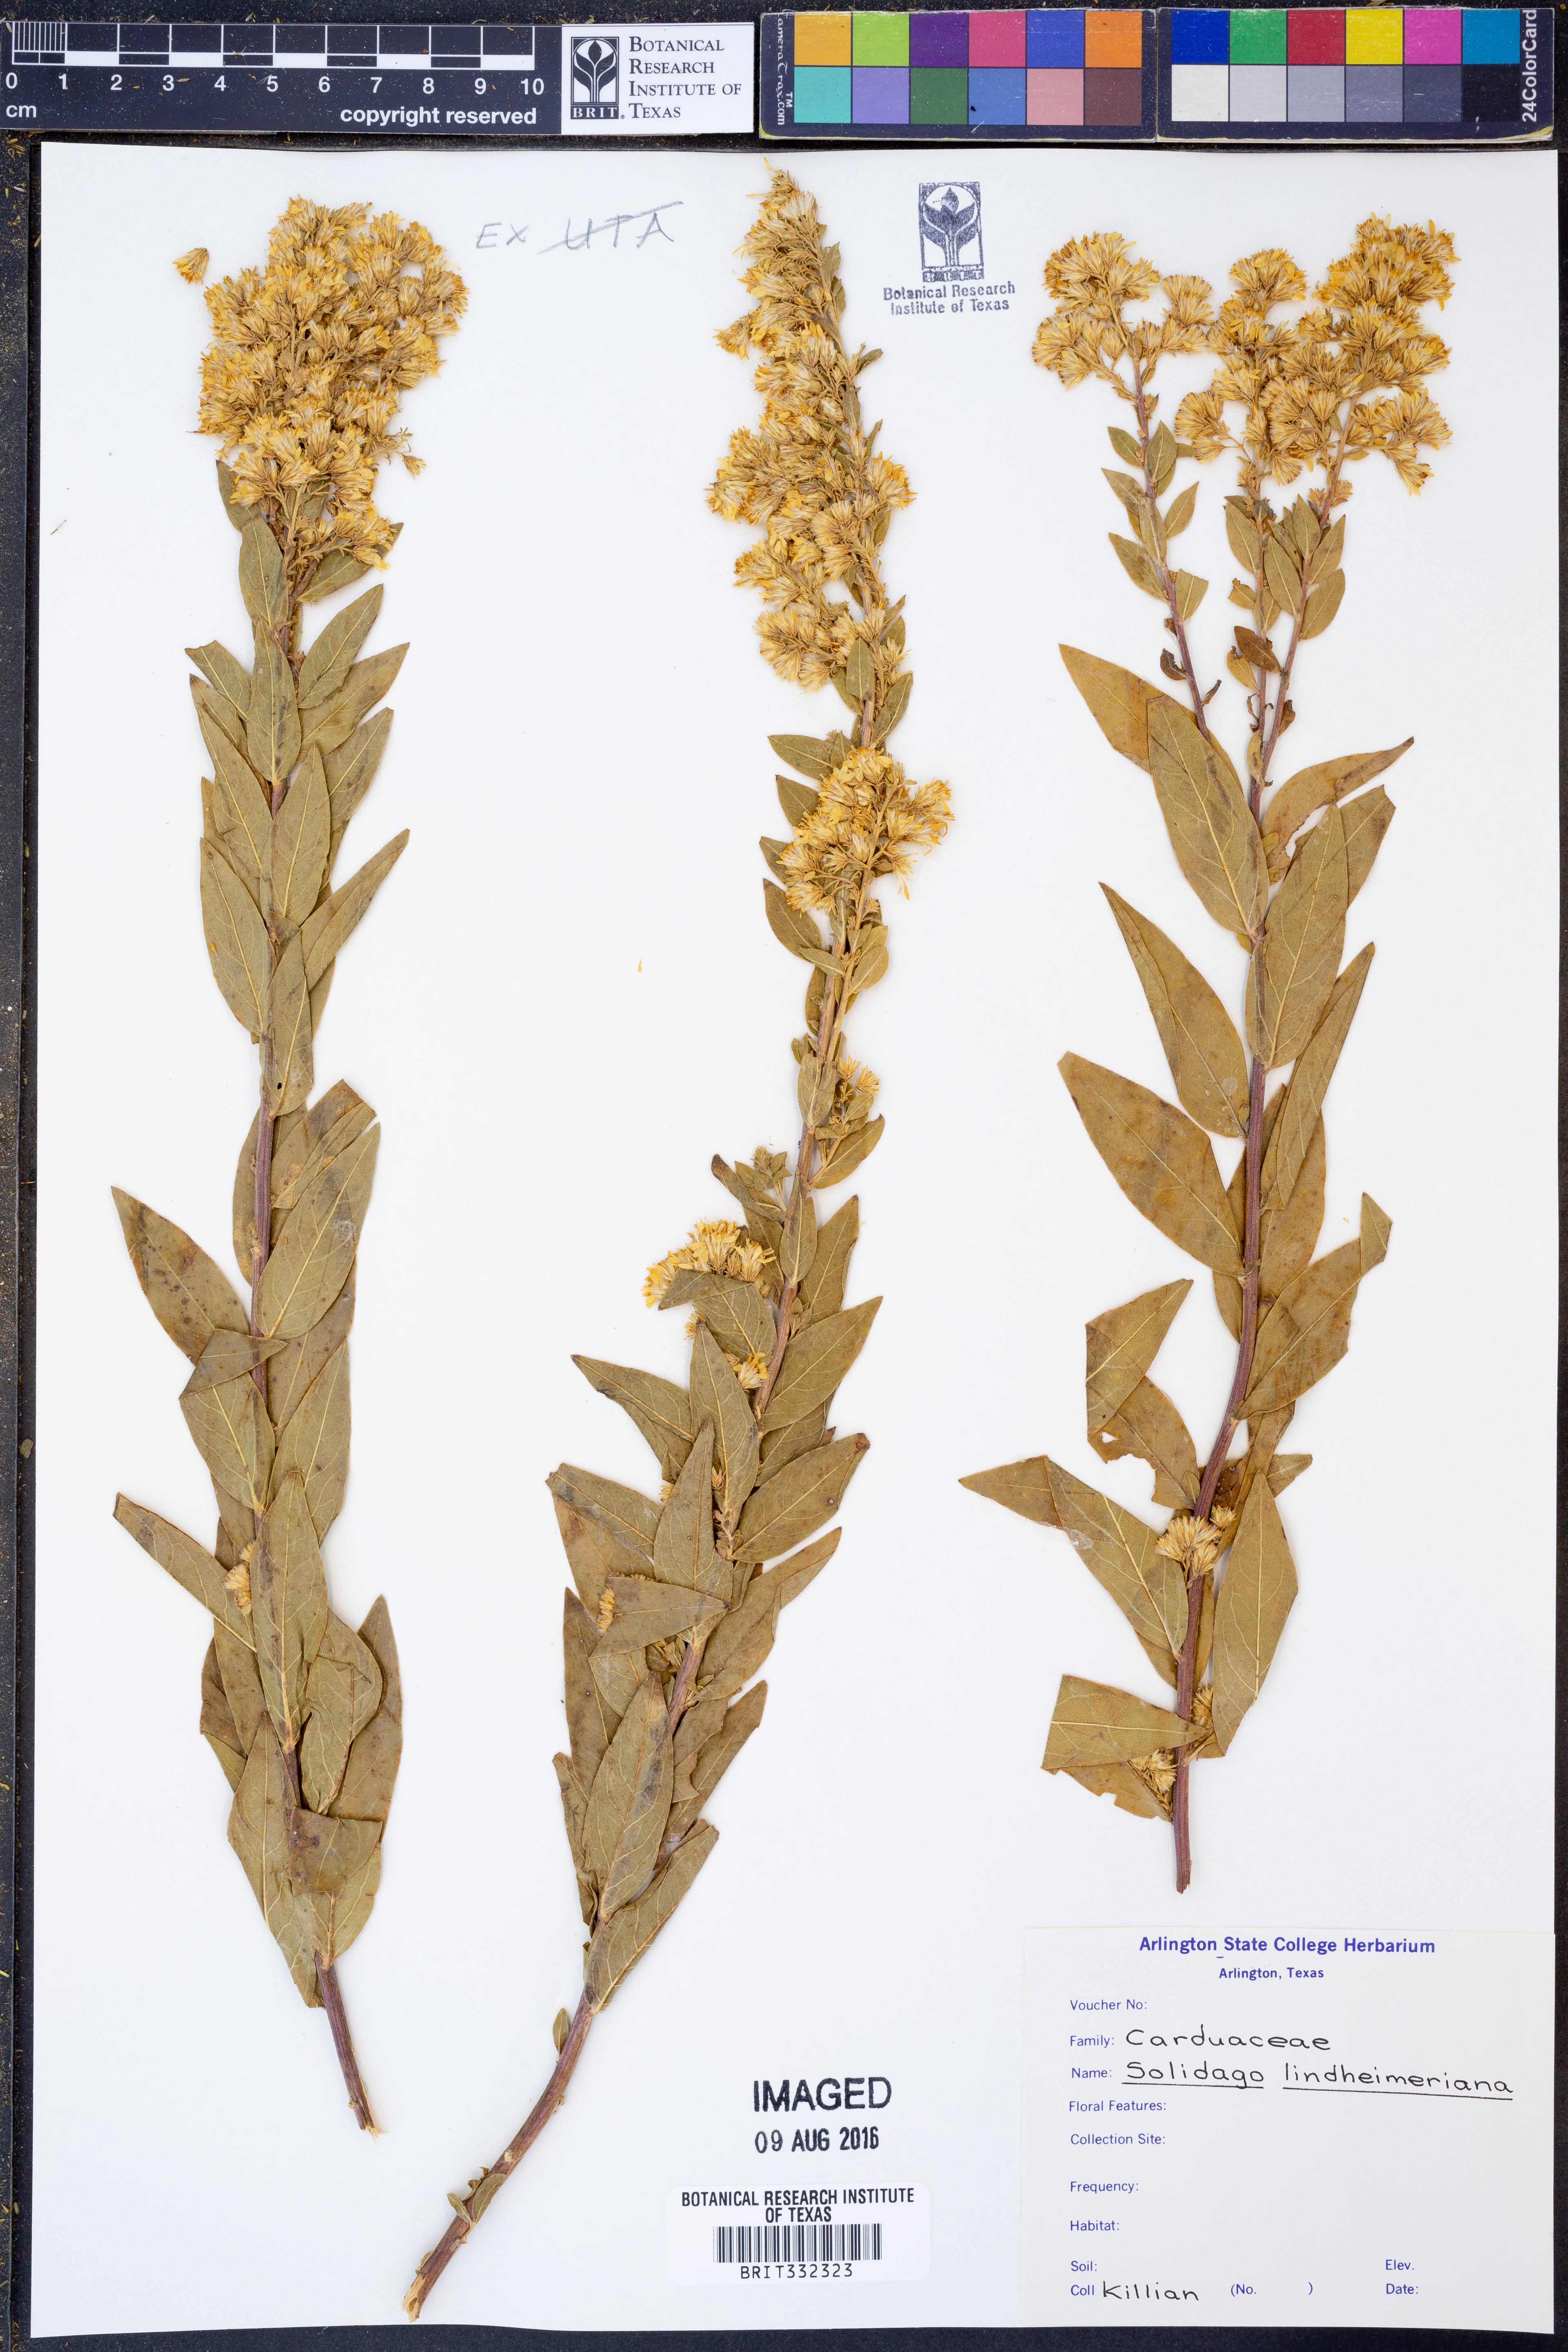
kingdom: Plantae
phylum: Tracheophyta
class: Magnoliopsida
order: Asterales
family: Asteraceae
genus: Solidago
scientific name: Solidago petiolaris
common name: Downy ragged goldenrod
